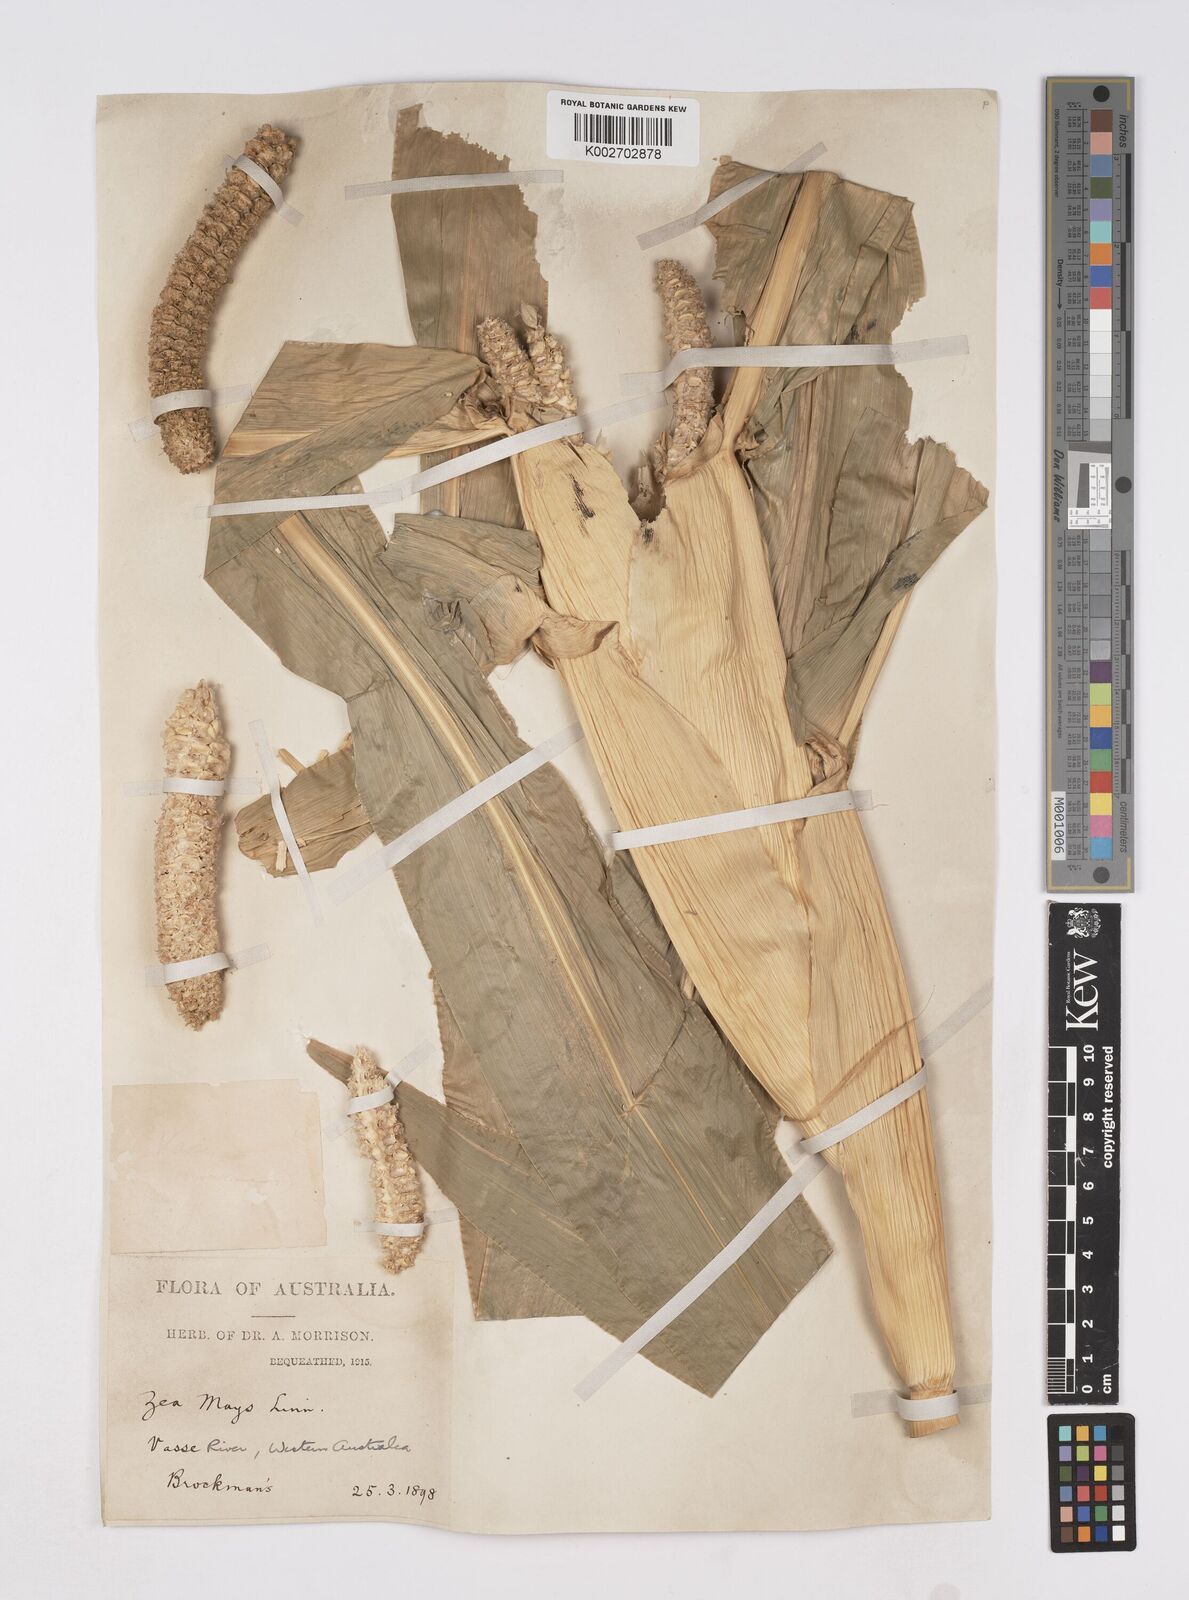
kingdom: Plantae
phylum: Tracheophyta
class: Liliopsida
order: Poales
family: Poaceae
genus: Zea
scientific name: Zea mays
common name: Maize
